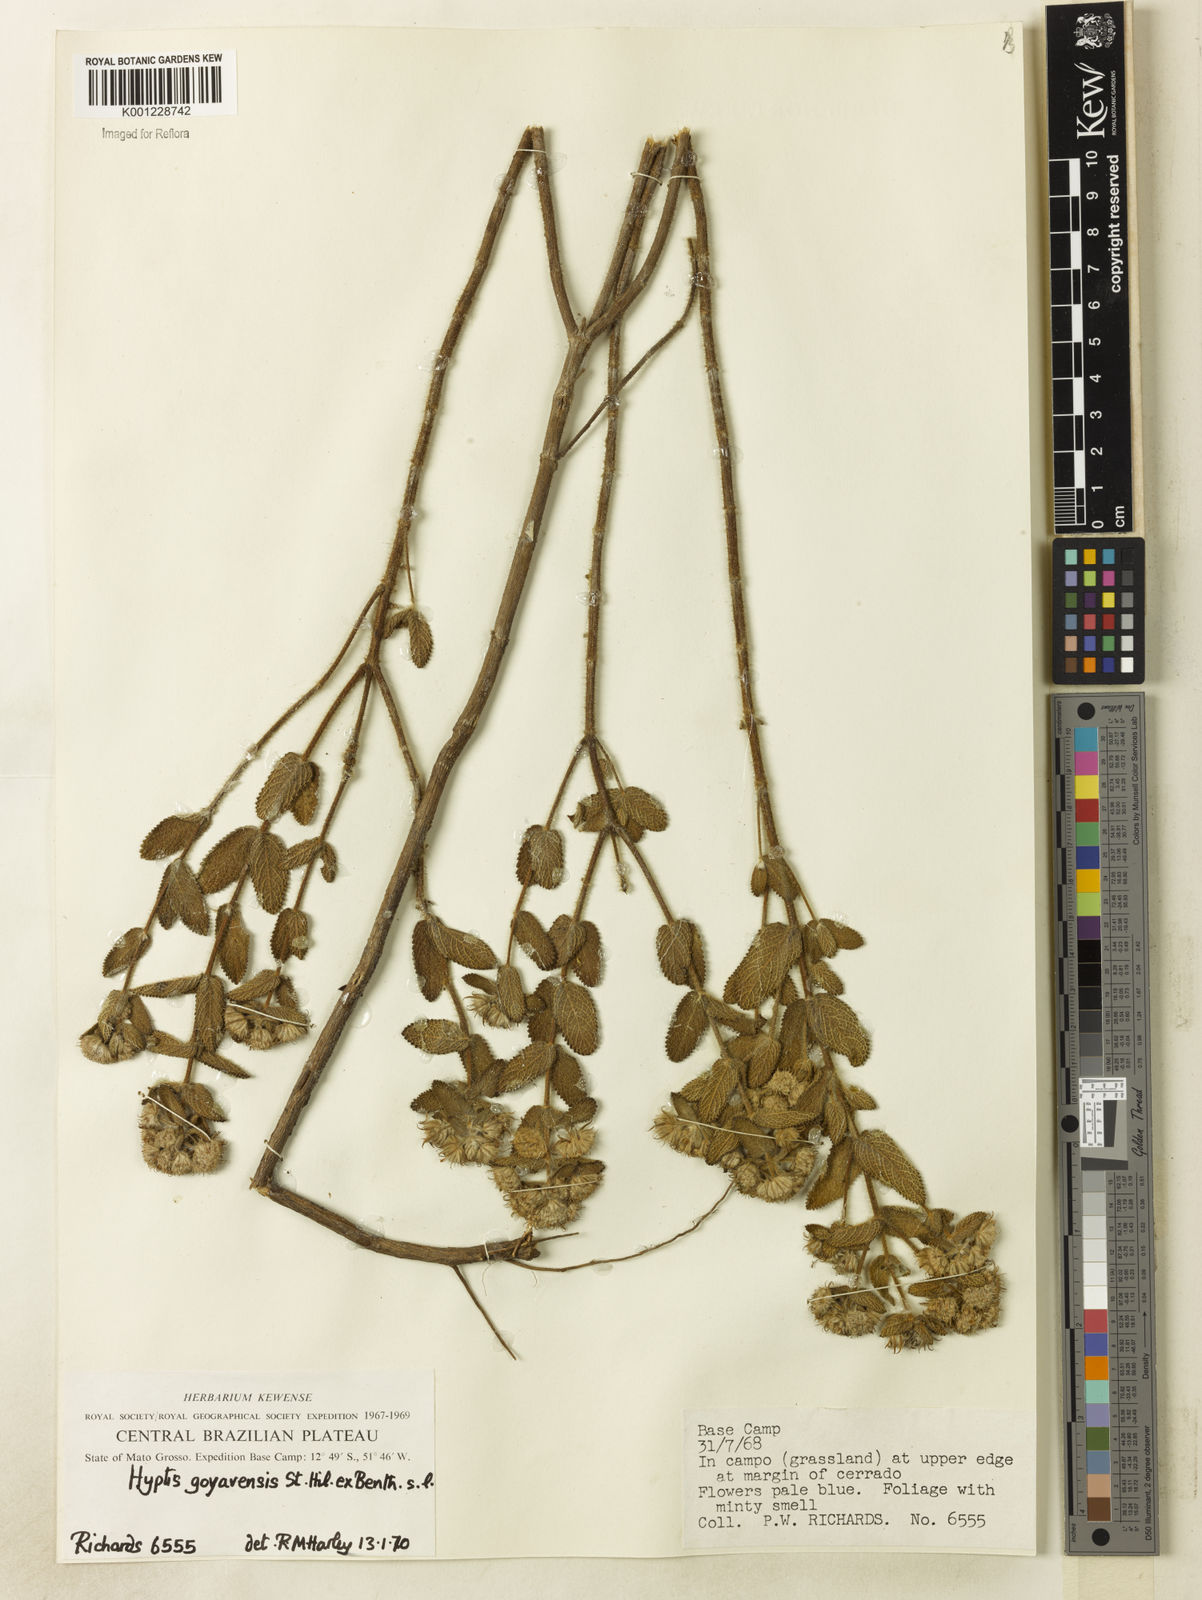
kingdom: Plantae
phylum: Tracheophyta
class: Magnoliopsida
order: Lamiales
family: Lamiaceae
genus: Hyptis
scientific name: Hyptis crenata
